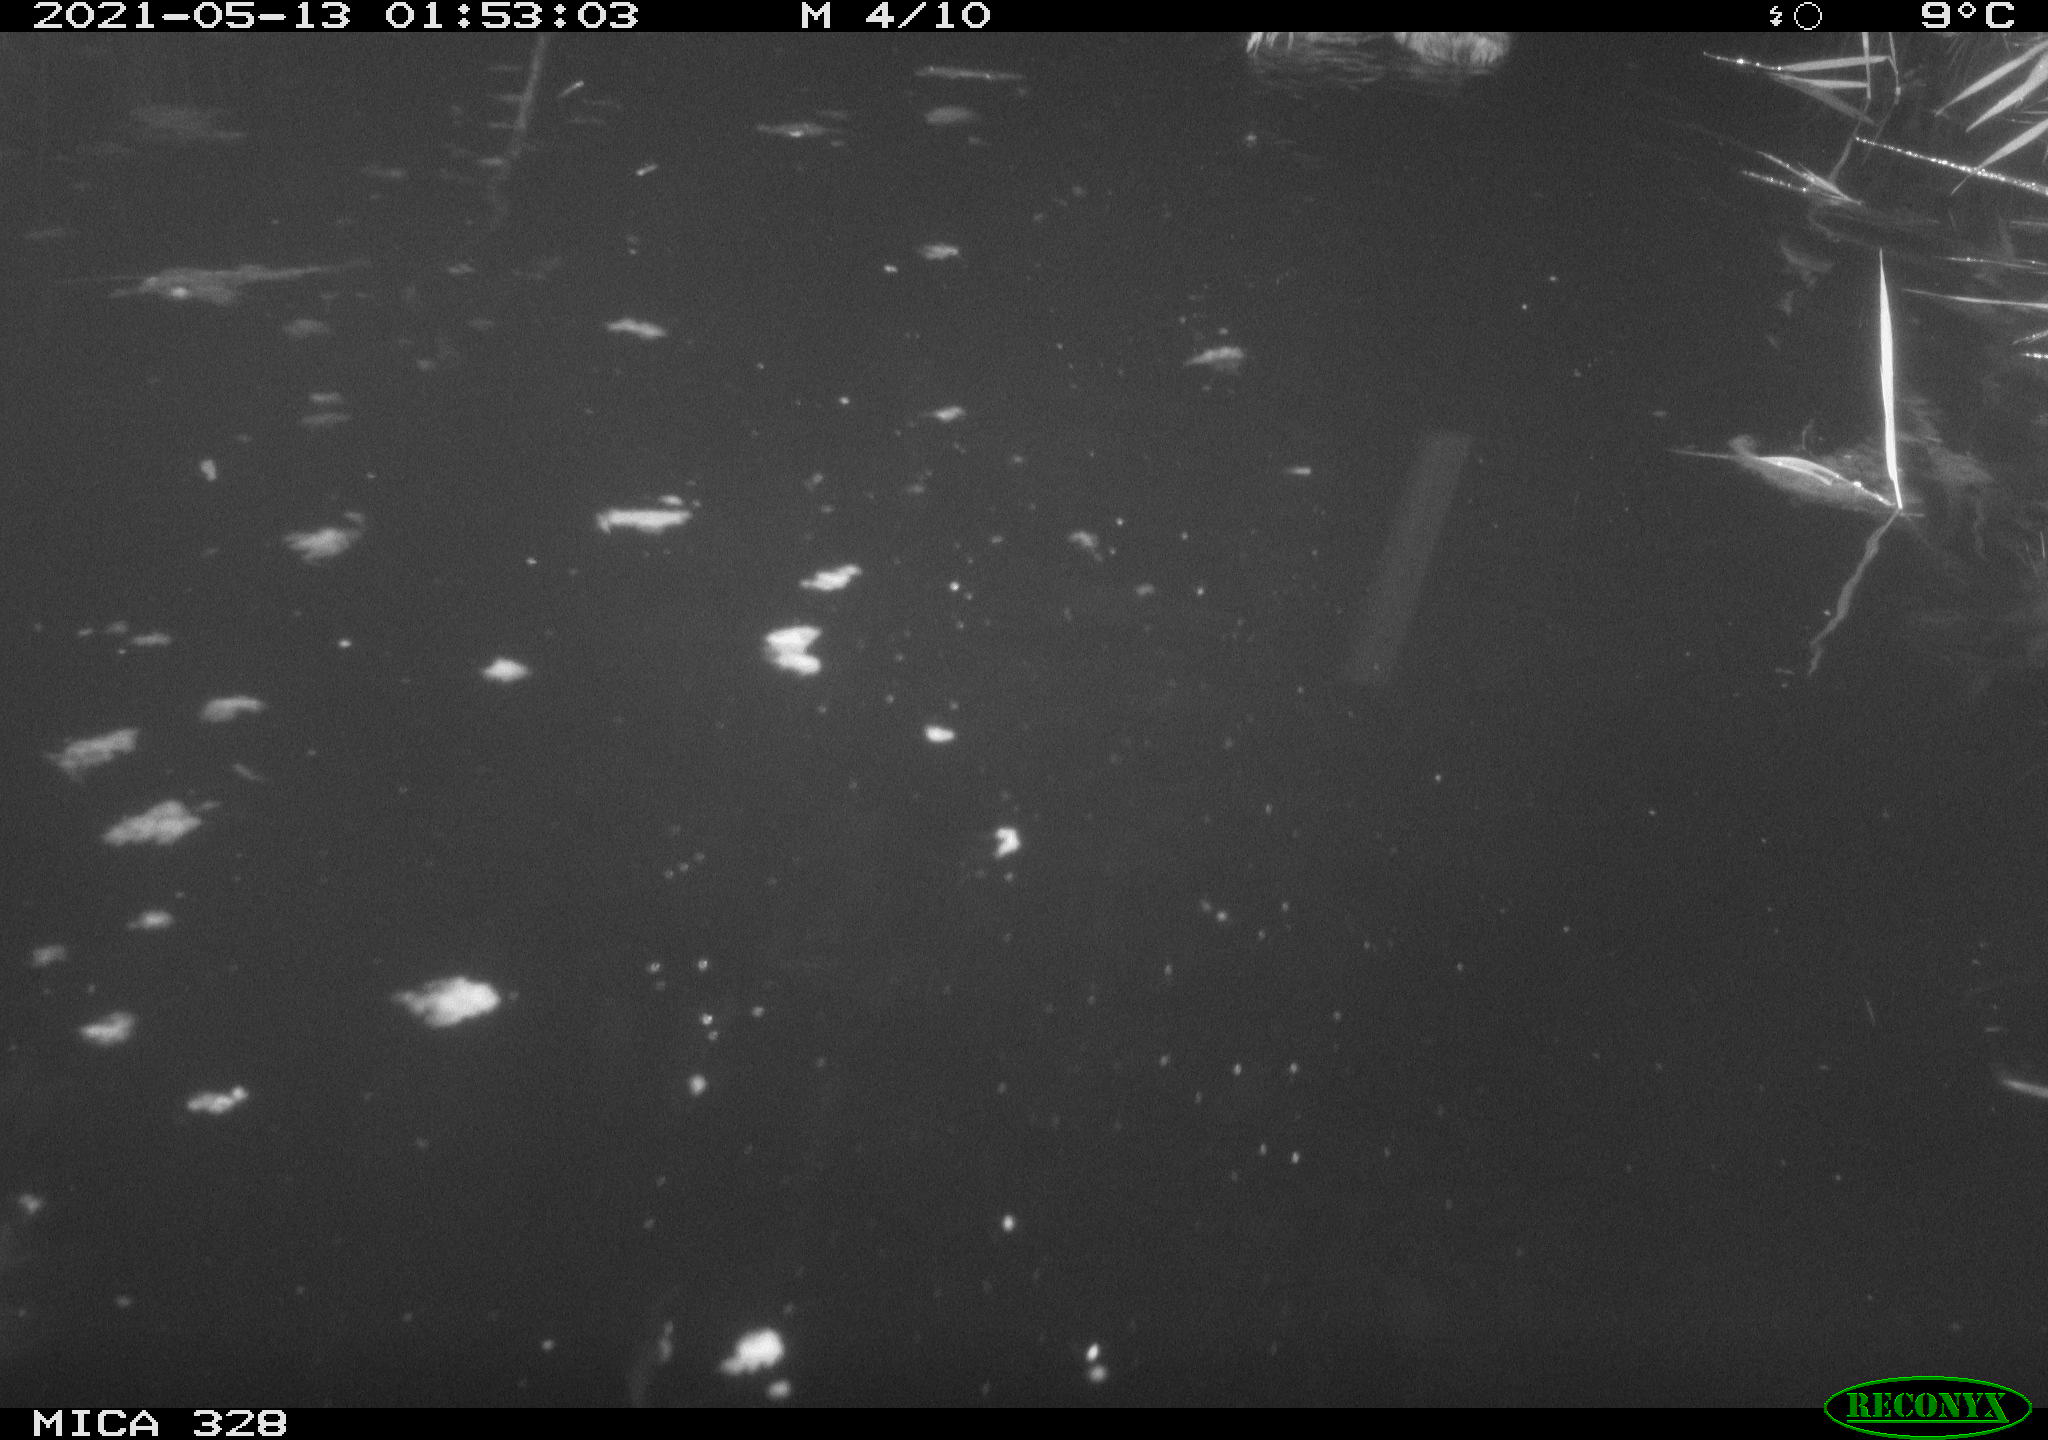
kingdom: Animalia
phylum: Chordata
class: Mammalia
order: Rodentia
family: Cricetidae
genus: Ondatra
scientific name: Ondatra zibethicus
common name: Muskrat
